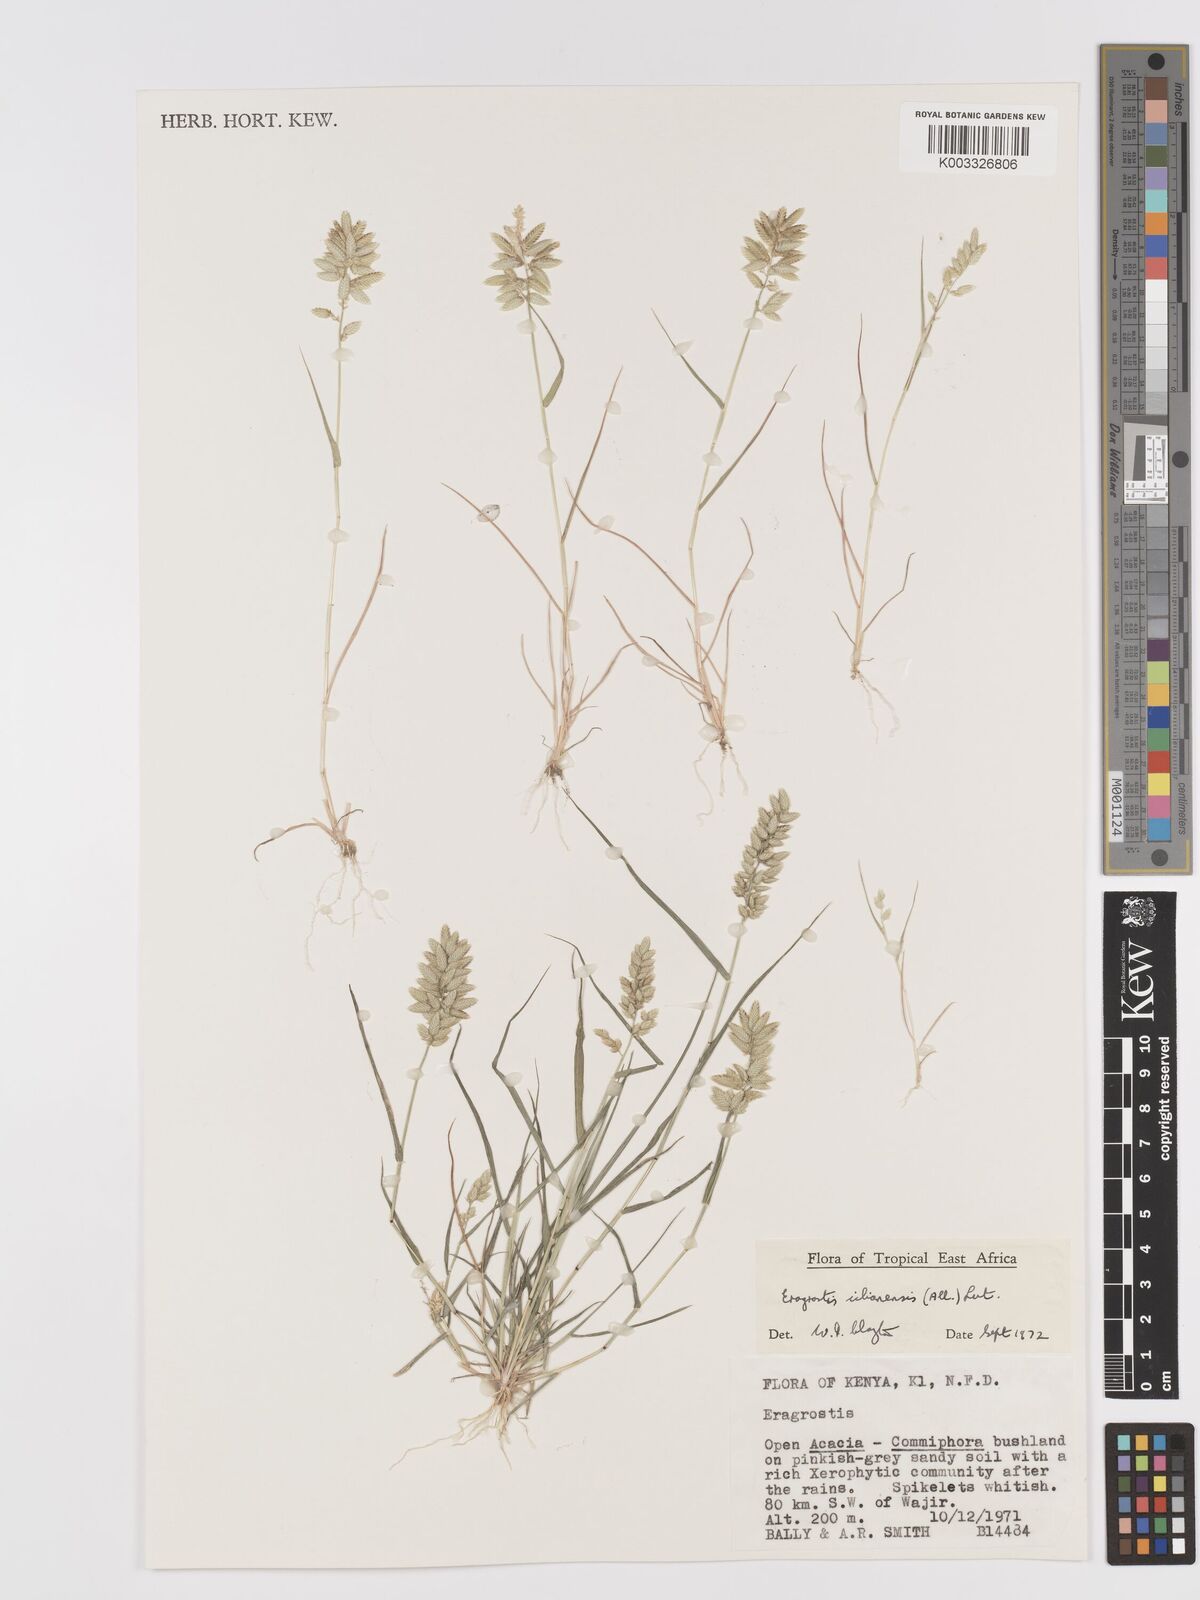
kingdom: Plantae
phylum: Tracheophyta
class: Liliopsida
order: Poales
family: Poaceae
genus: Eragrostis
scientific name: Eragrostis cilianensis
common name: Stinkgrass
